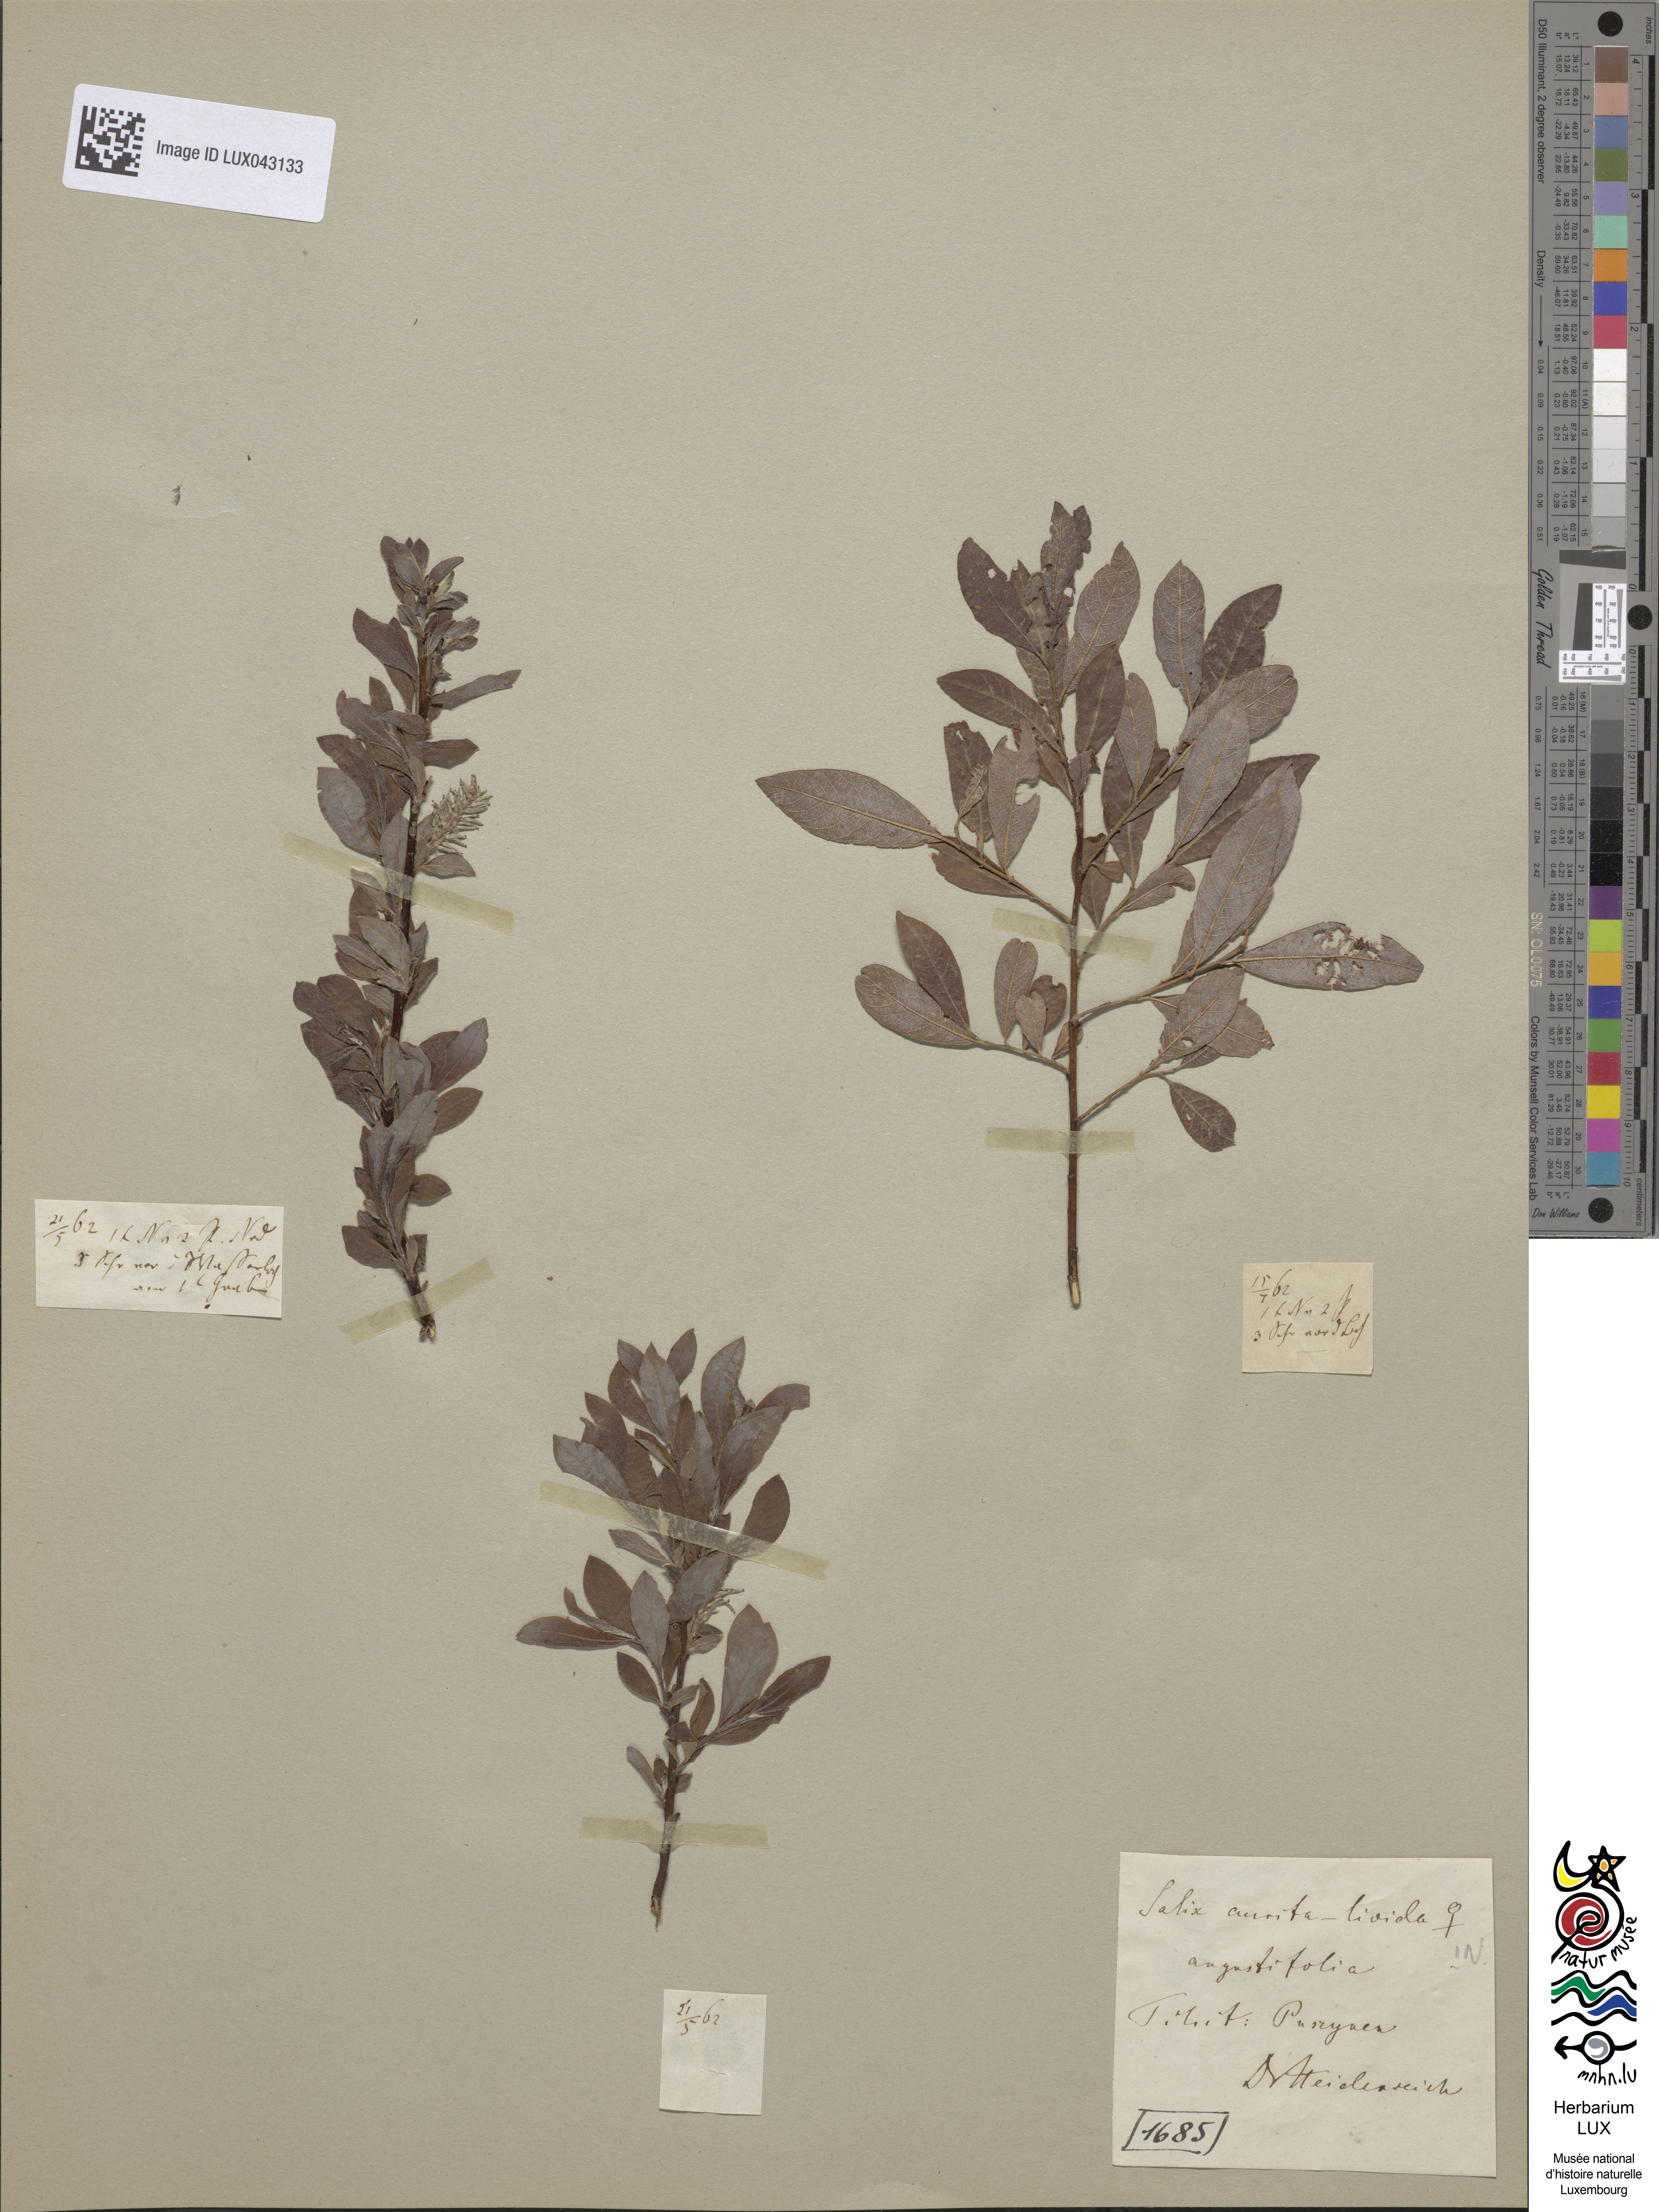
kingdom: Plantae
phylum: Tracheophyta
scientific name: Tracheophyta
